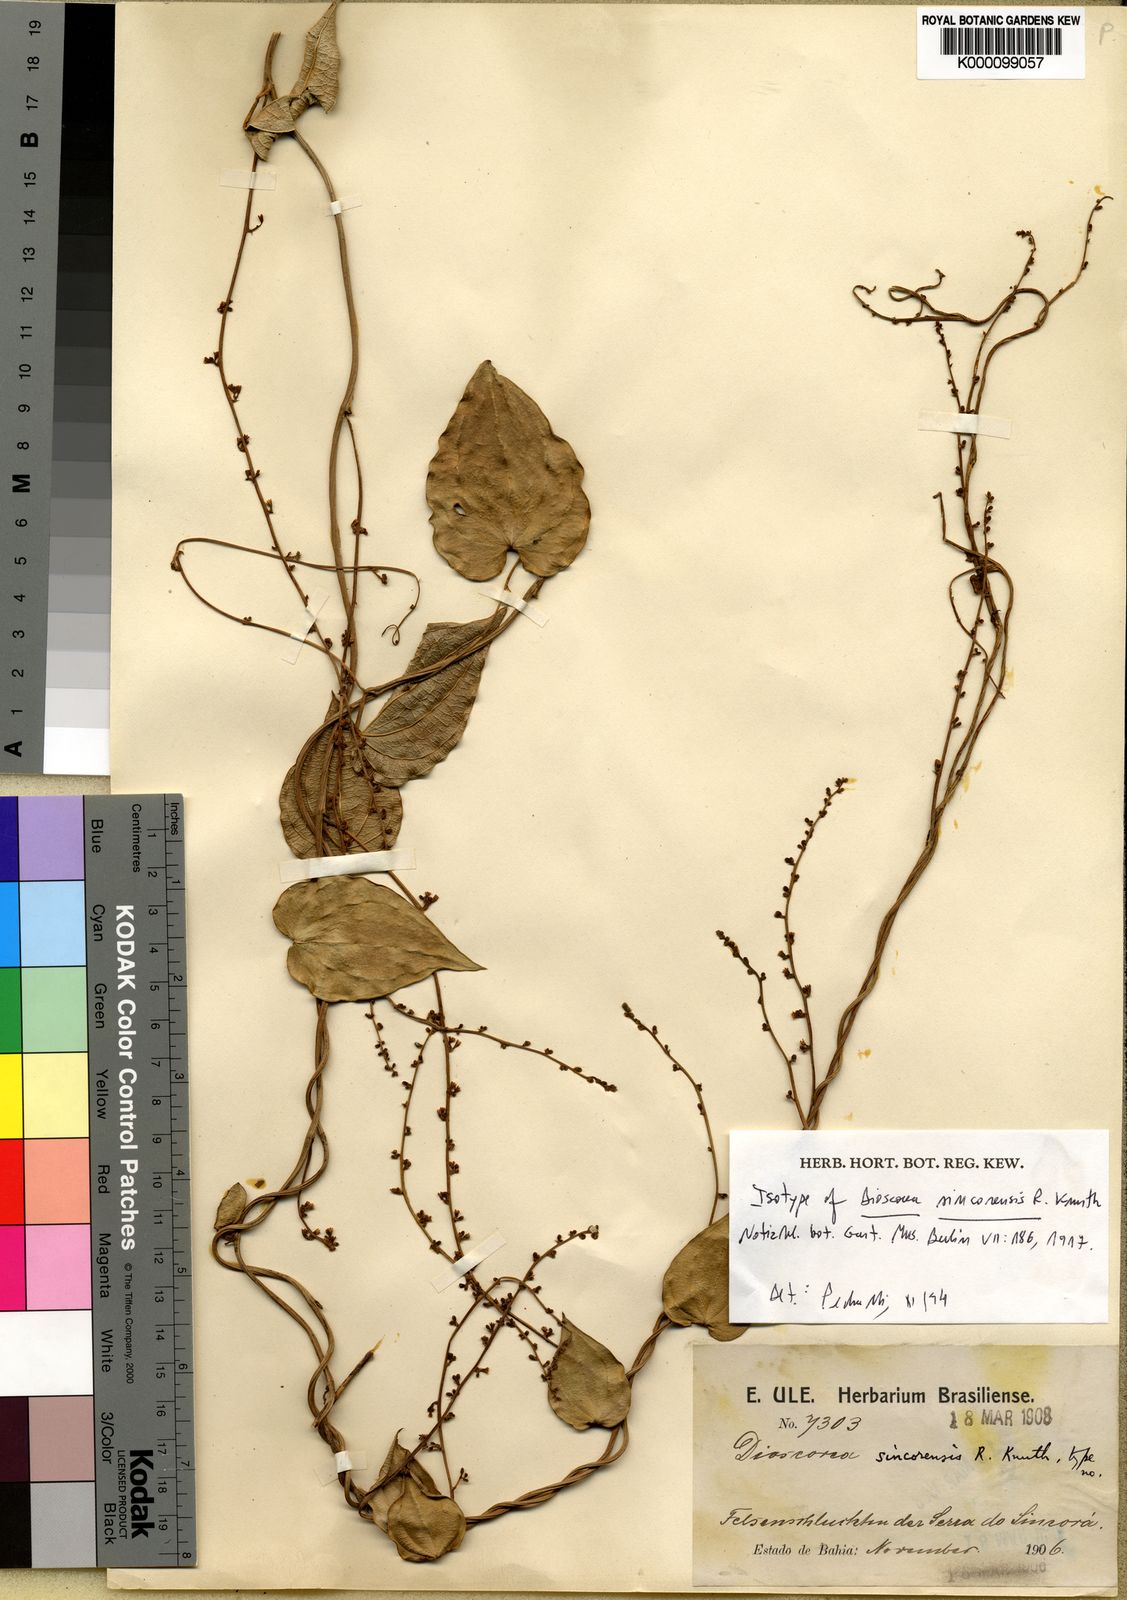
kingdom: Plantae
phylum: Tracheophyta
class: Liliopsida
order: Dioscoreales
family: Dioscoreaceae
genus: Dioscorea
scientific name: Dioscorea sincorensis
